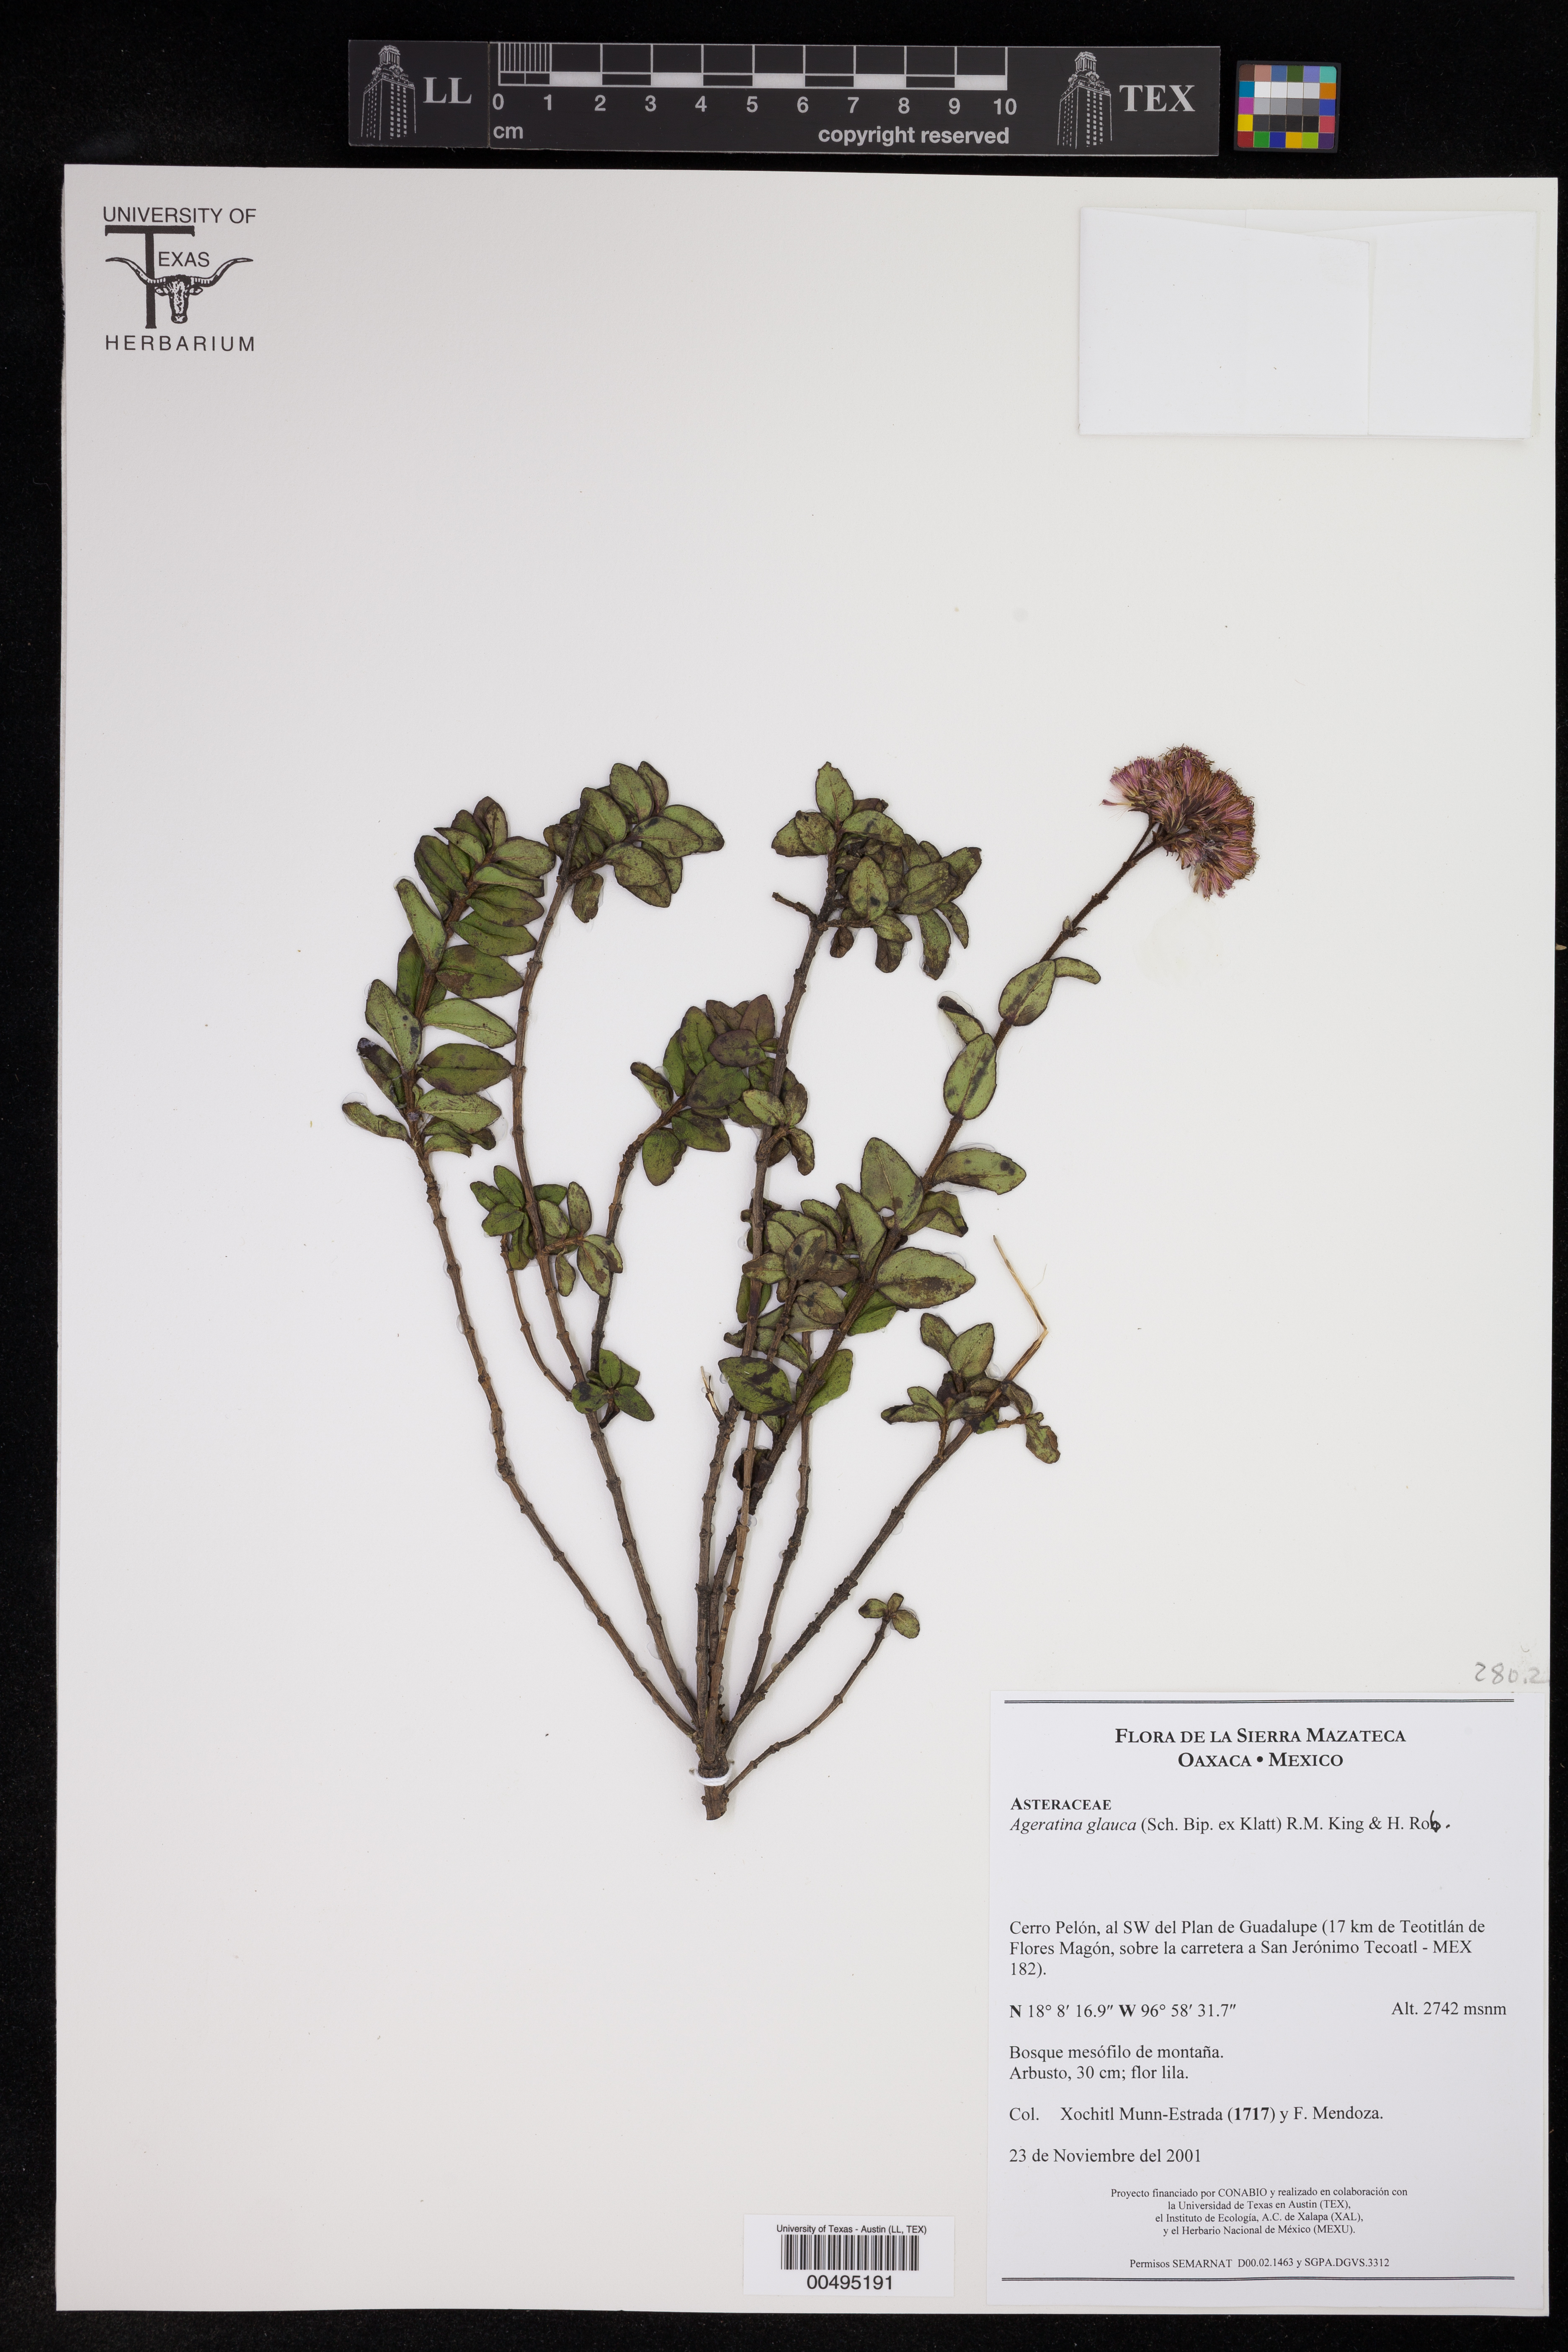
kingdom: Plantae
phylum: Tracheophyta
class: Magnoliopsida
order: Asterales
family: Asteraceae
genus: Ageratina
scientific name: Ageratina glauca
